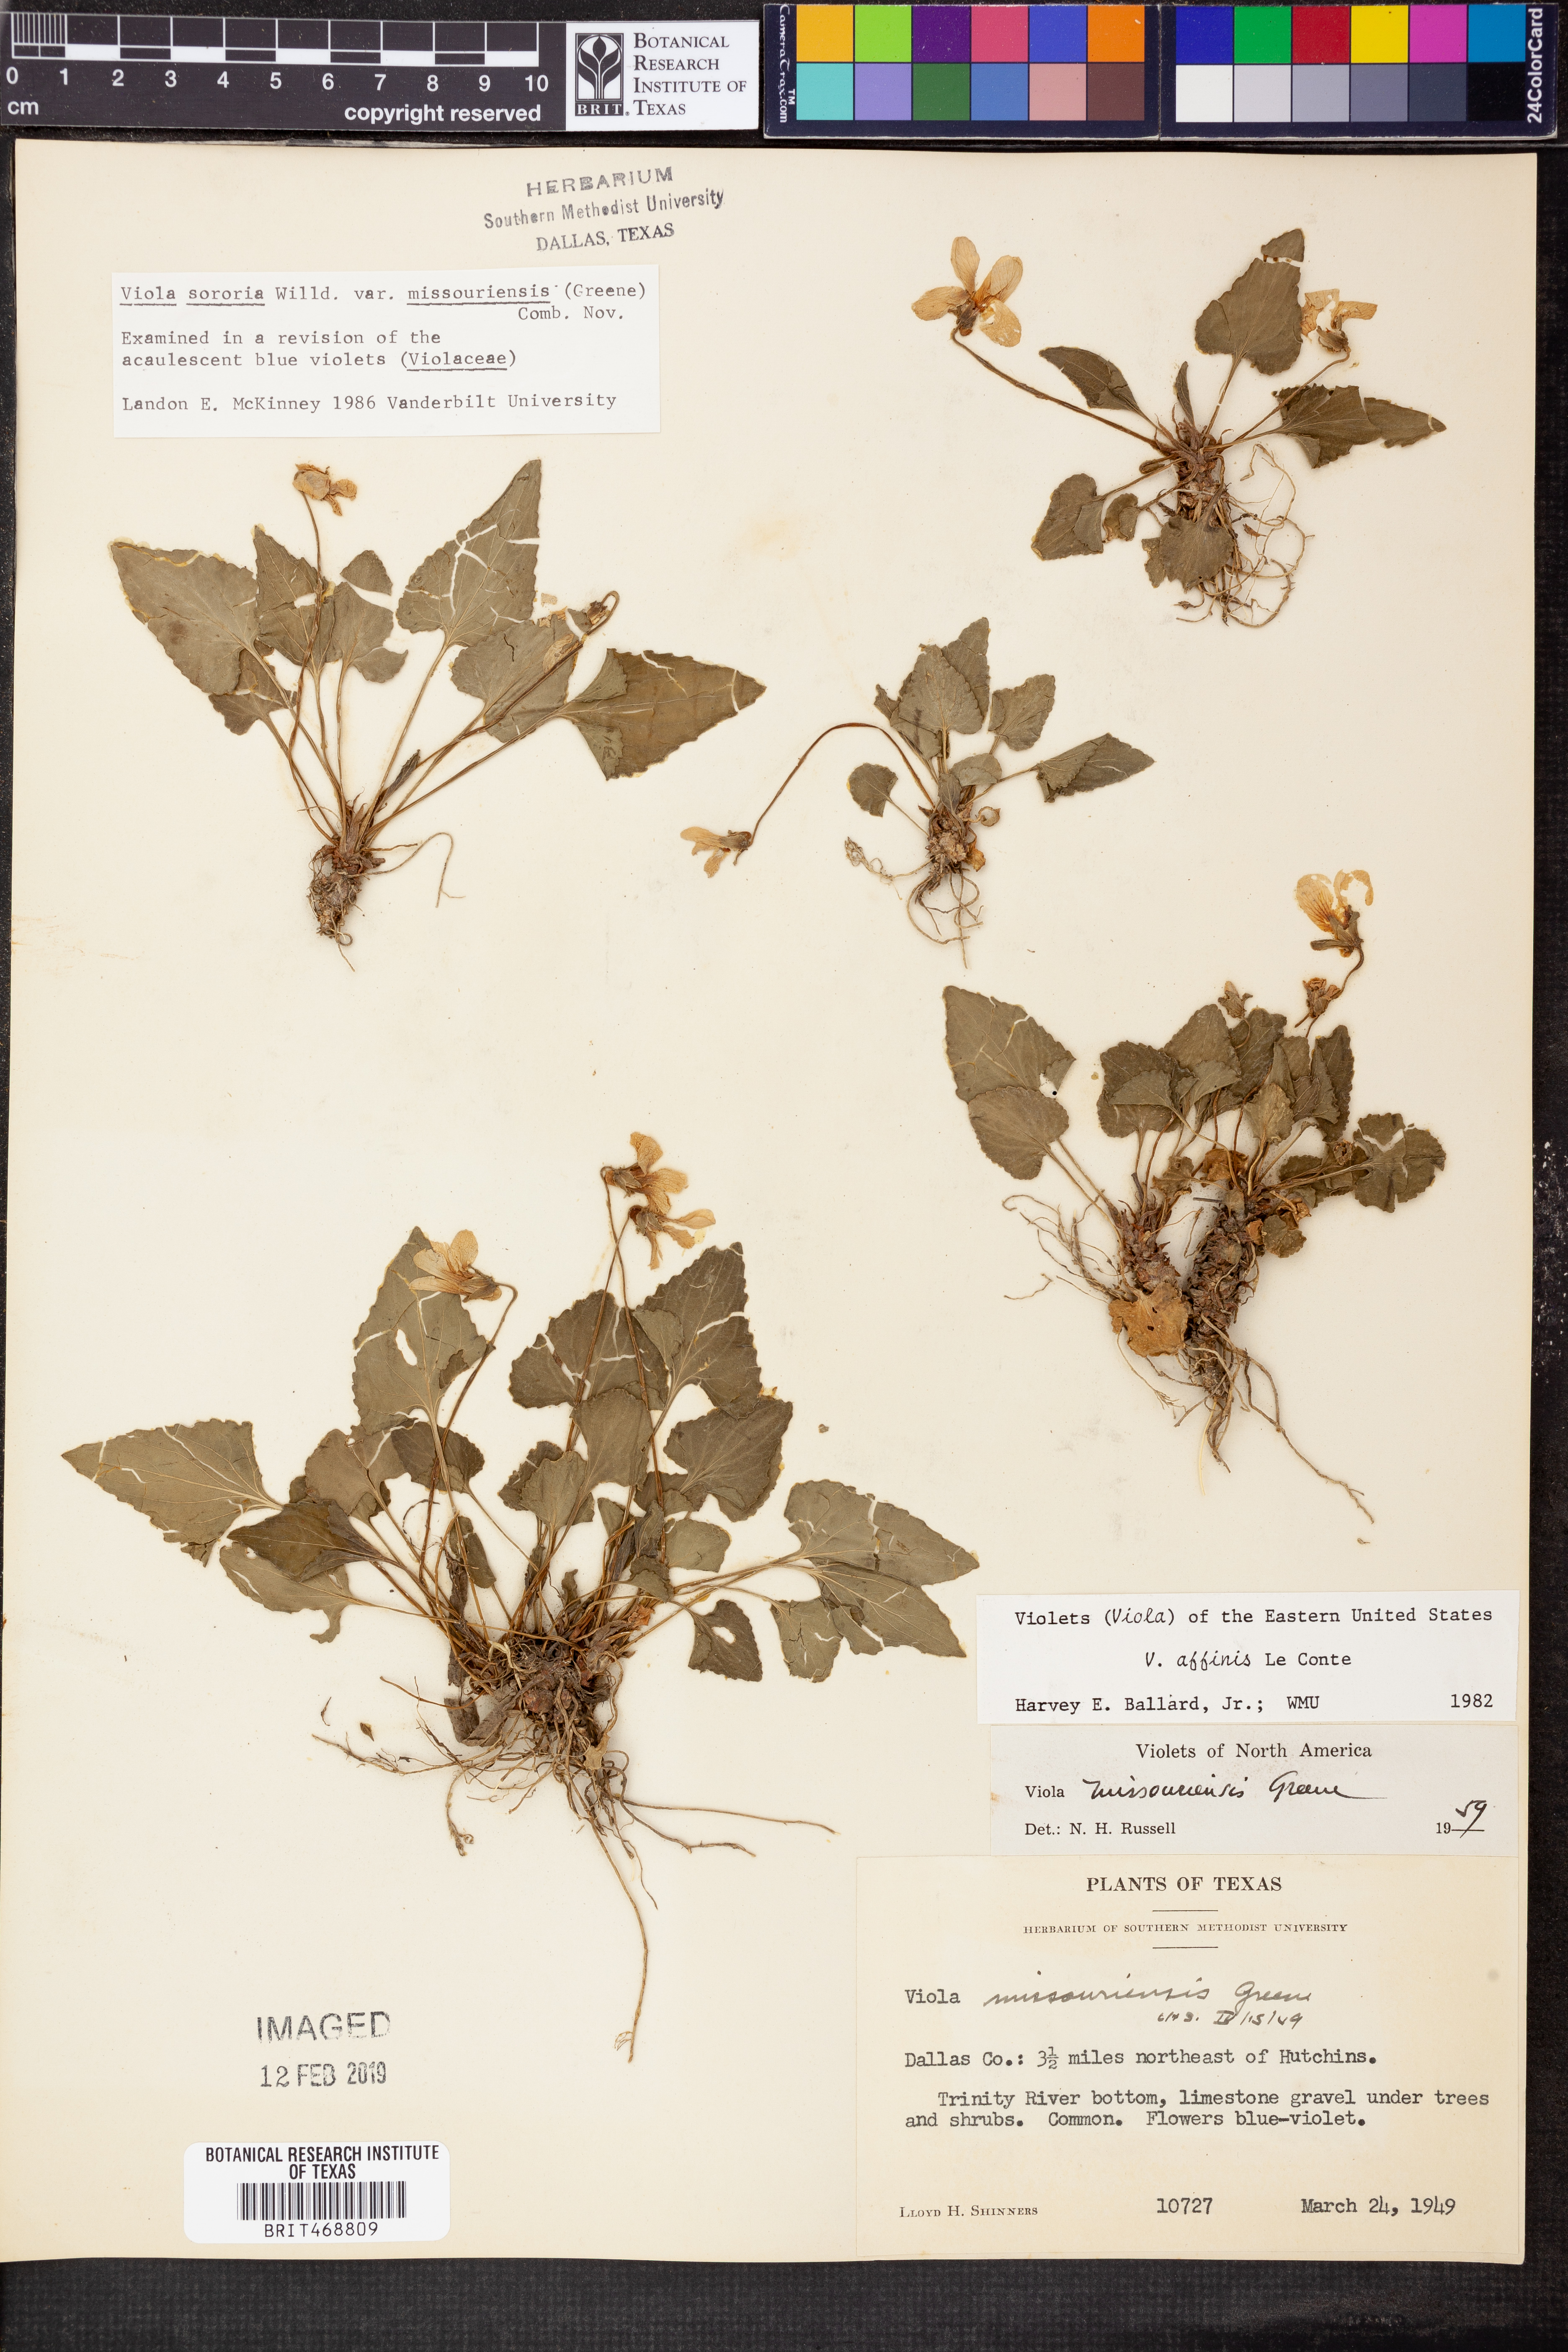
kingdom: Plantae
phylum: Tracheophyta
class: Magnoliopsida
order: Malpighiales
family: Violaceae
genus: Viola
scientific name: Viola missouriensis
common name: Missouri violet
